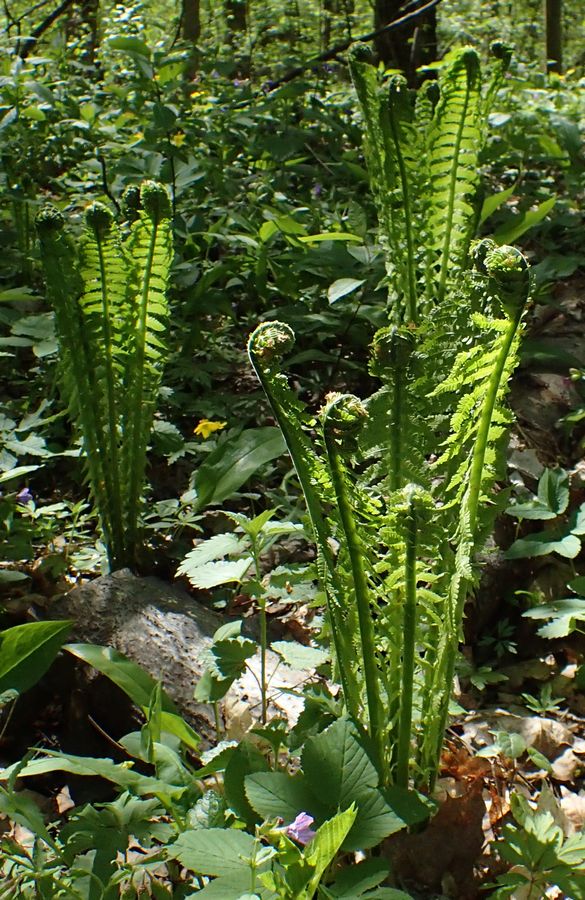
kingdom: Plantae
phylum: Tracheophyta
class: Polypodiopsida
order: Polypodiales
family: Onocleaceae
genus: Matteuccia
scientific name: Matteuccia struthiopteris
